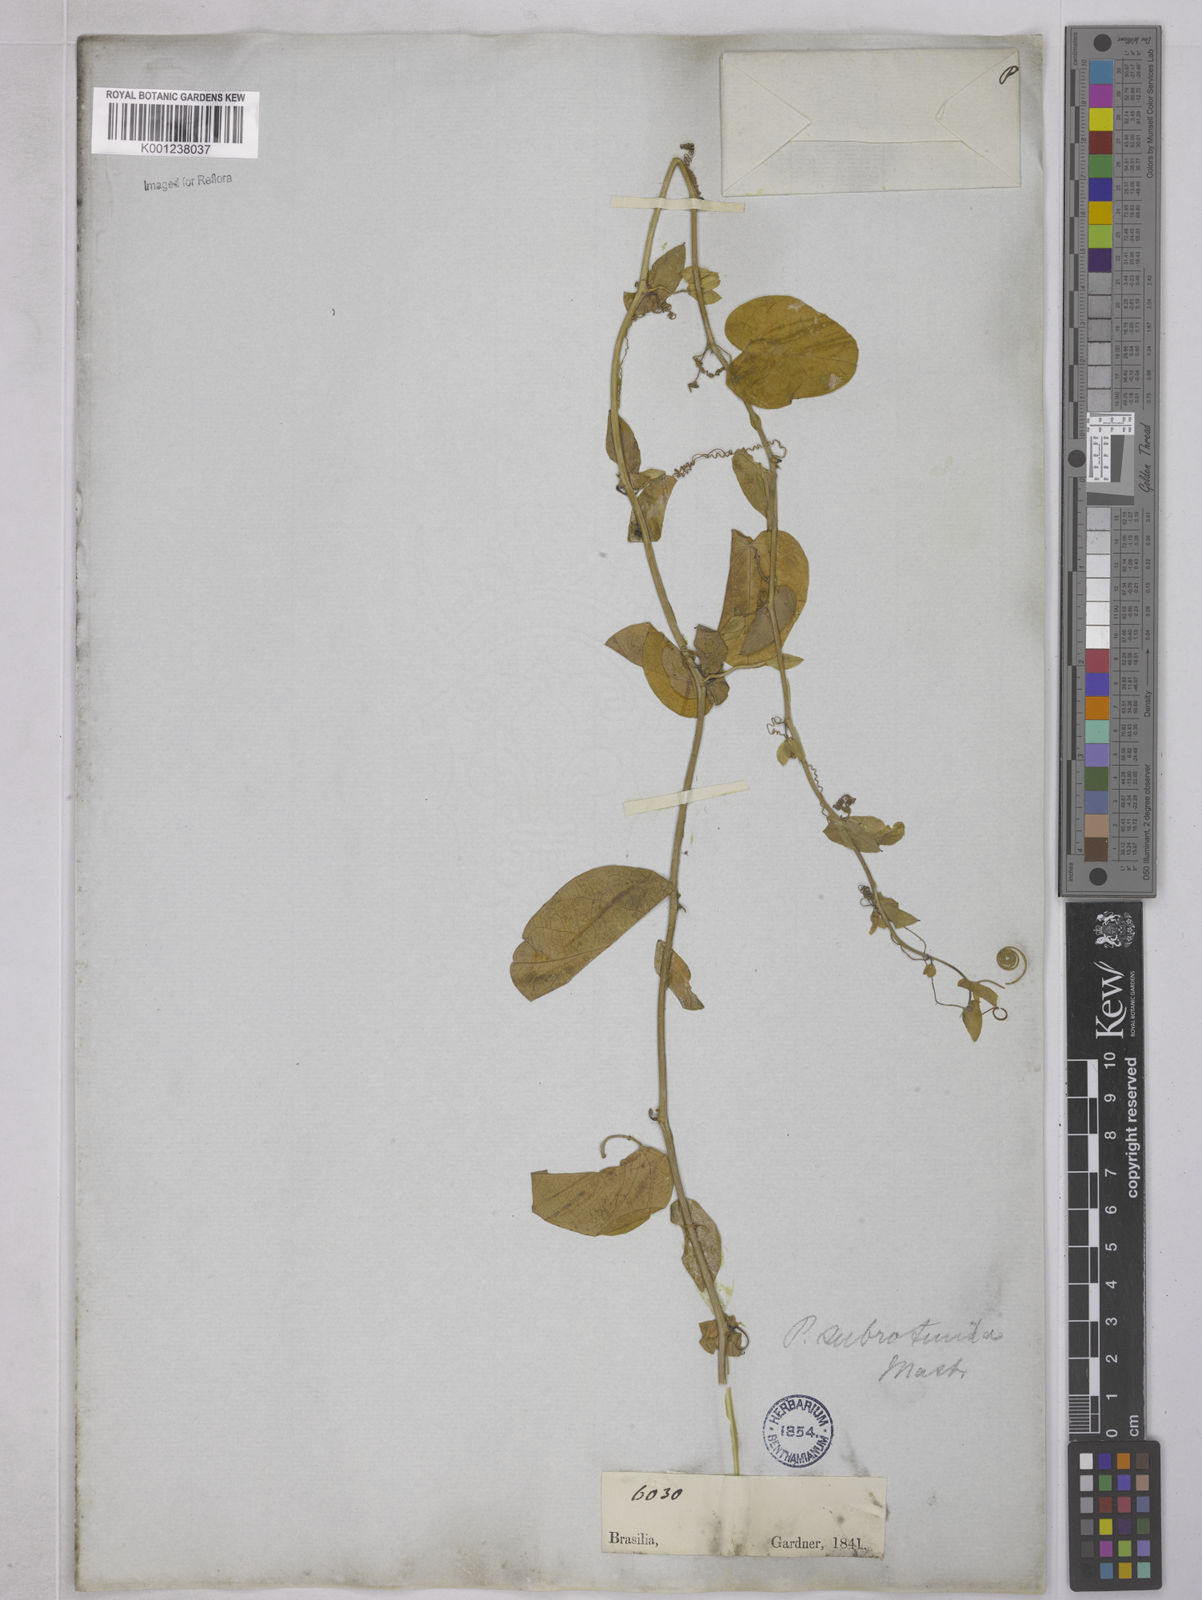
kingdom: Plantae
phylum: Tracheophyta
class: Magnoliopsida
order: Malpighiales
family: Passifloraceae
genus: Passiflora
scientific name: Passiflora subrotunda
